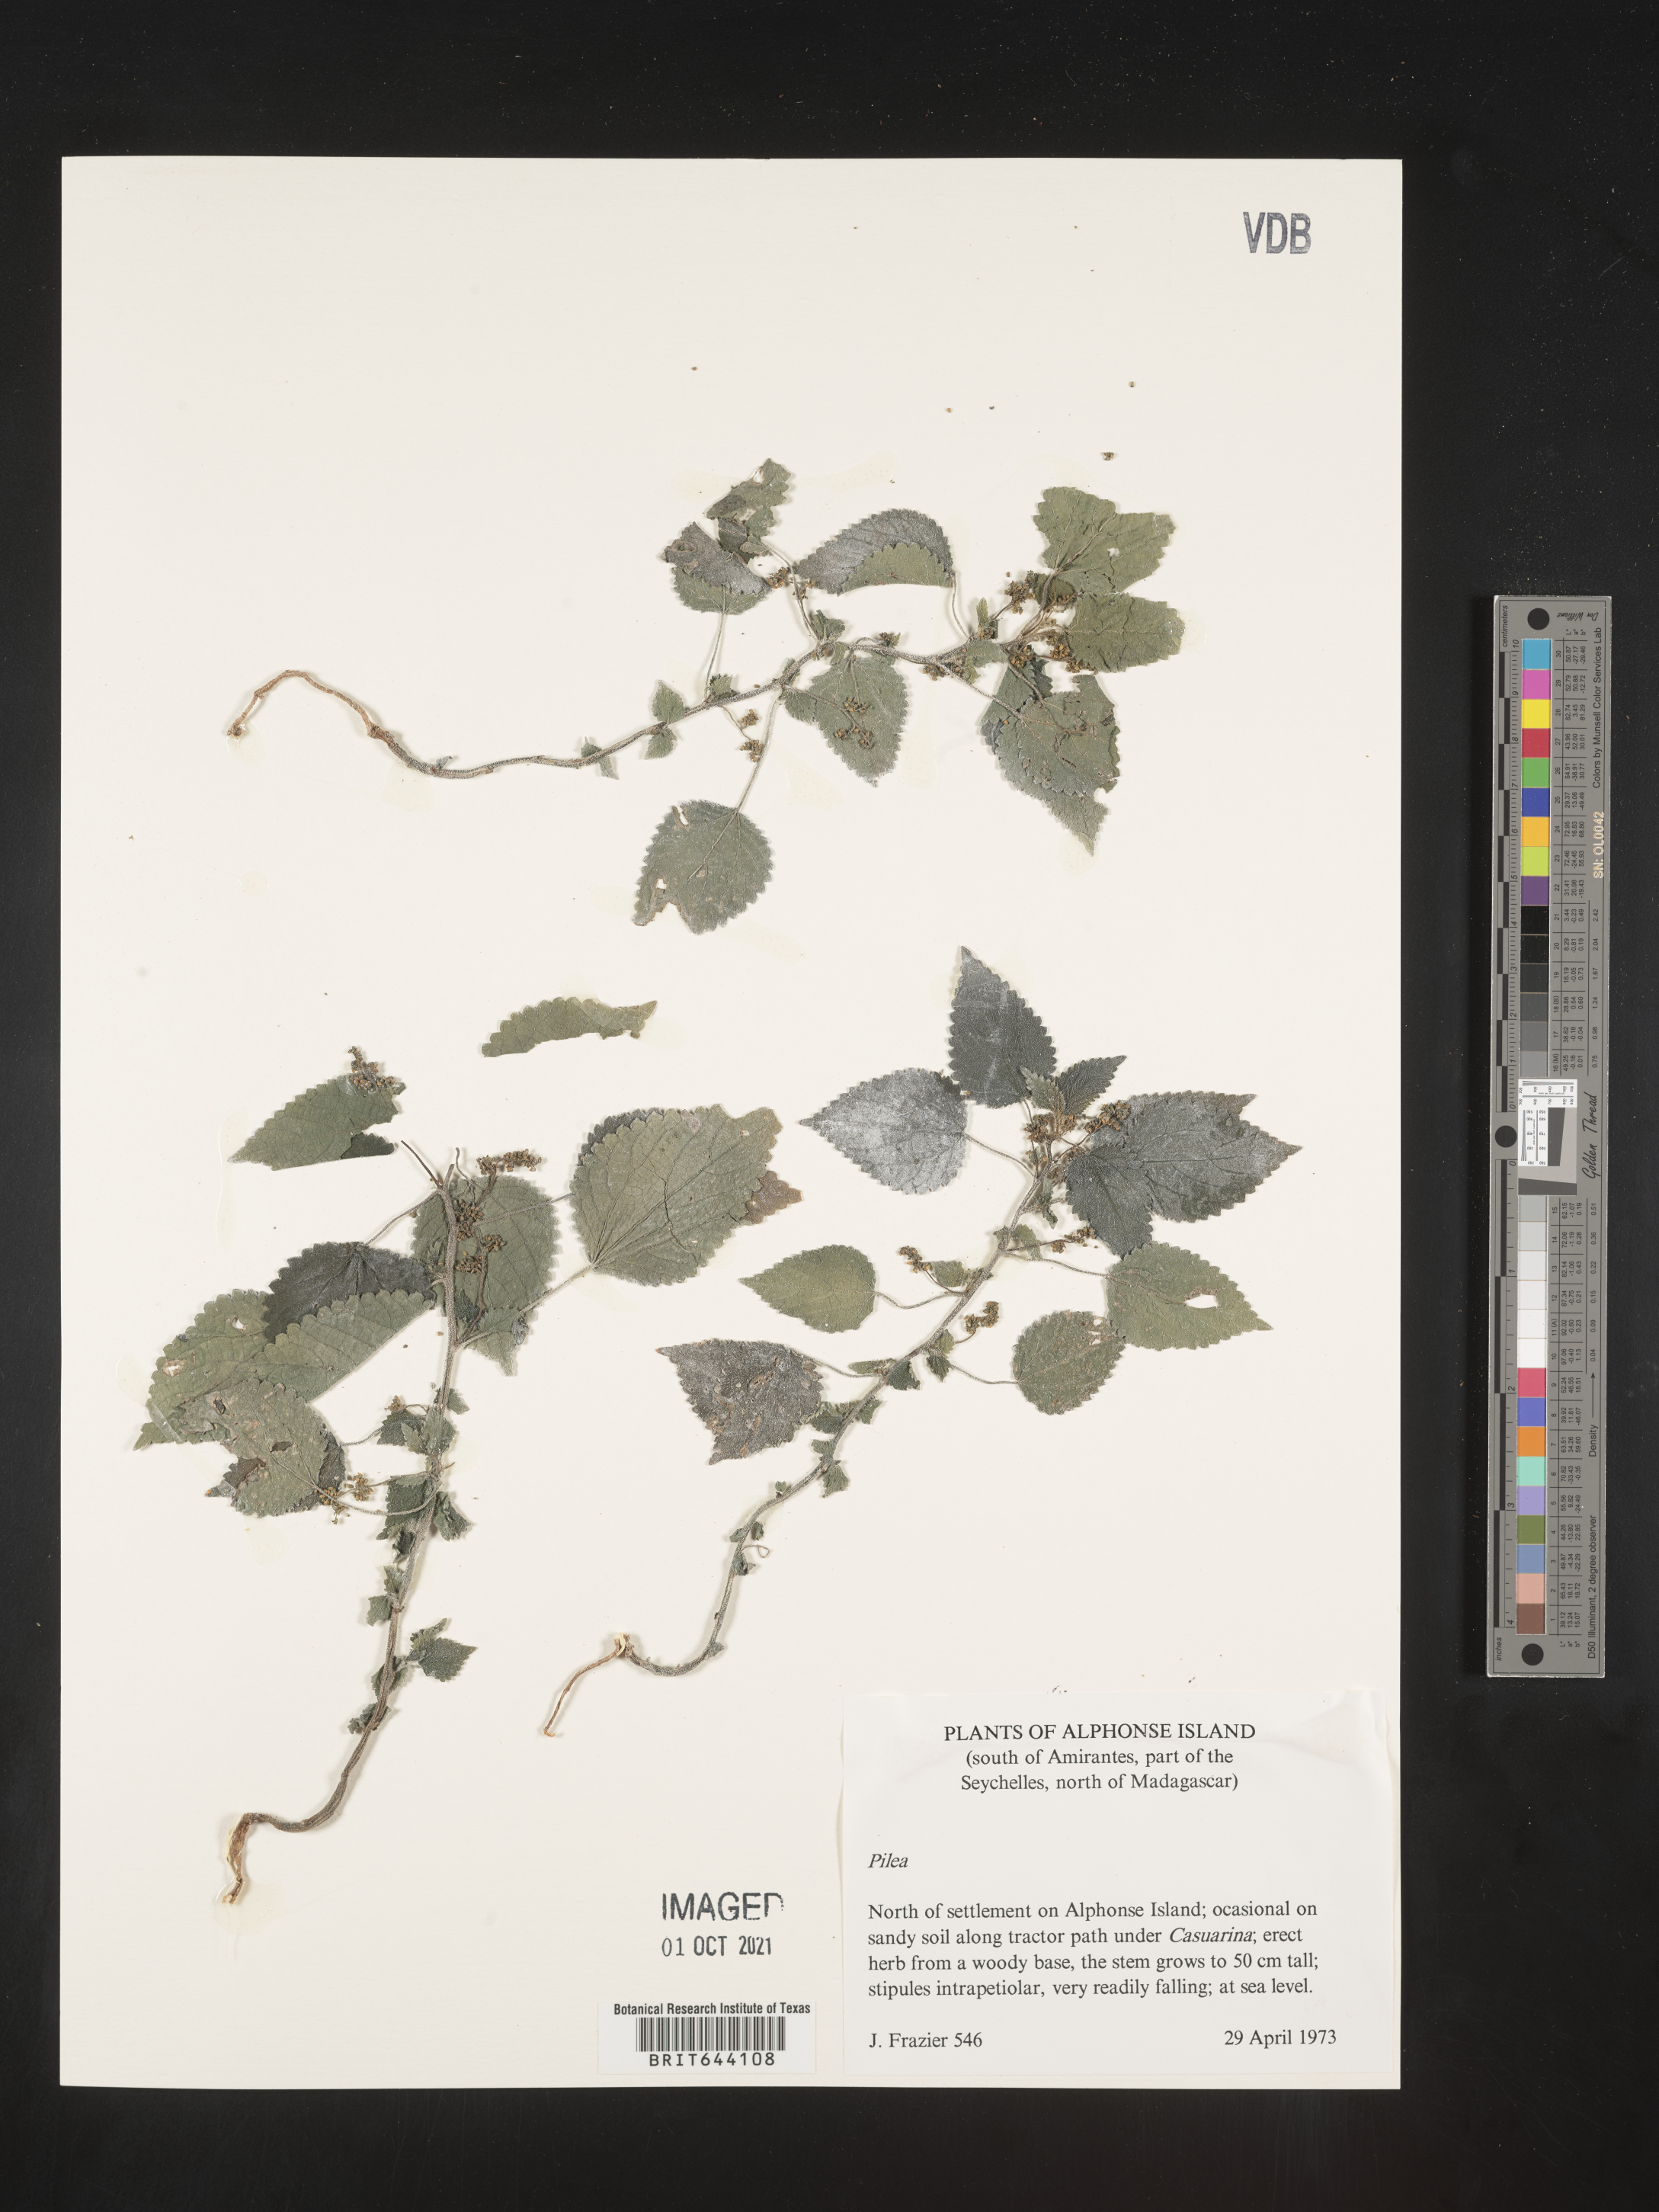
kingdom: Plantae
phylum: Tracheophyta
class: Magnoliopsida
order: Rosales
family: Urticaceae
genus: Pilea
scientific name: Pilea
